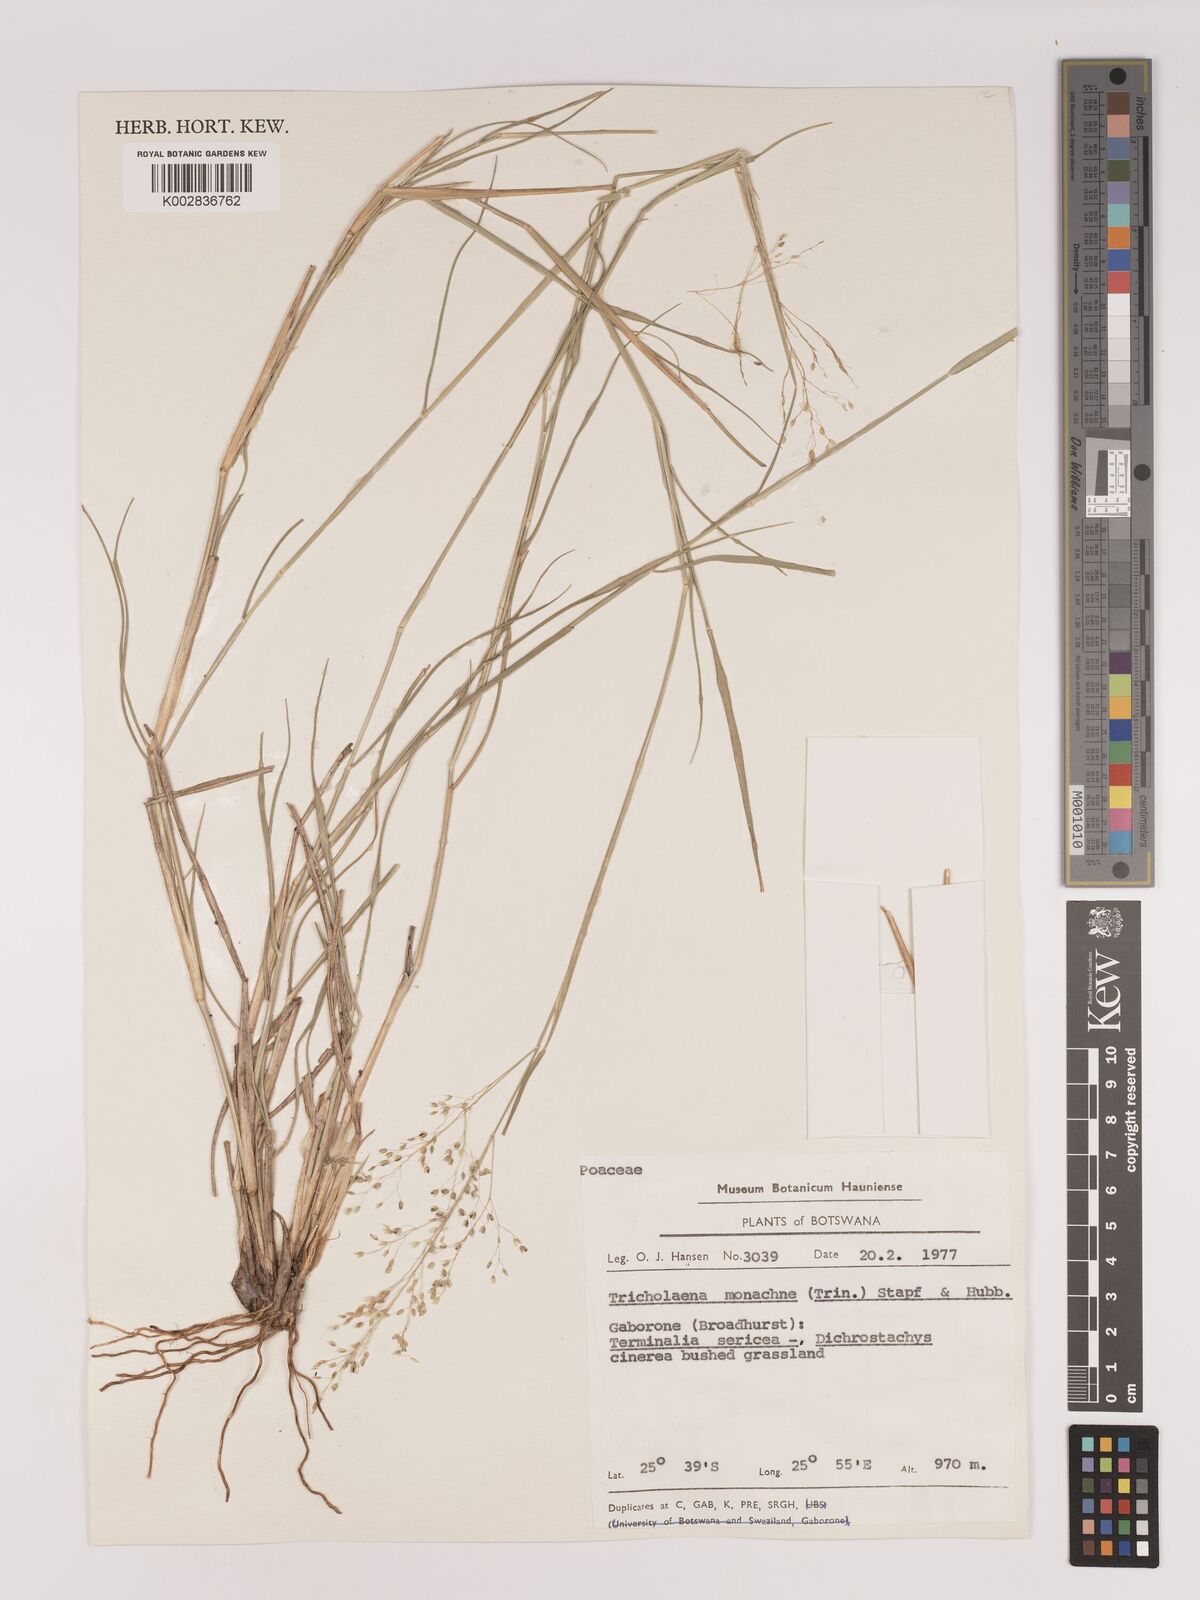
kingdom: Plantae
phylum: Tracheophyta
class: Liliopsida
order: Poales
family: Poaceae
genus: Tricholaena
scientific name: Tricholaena monachne
